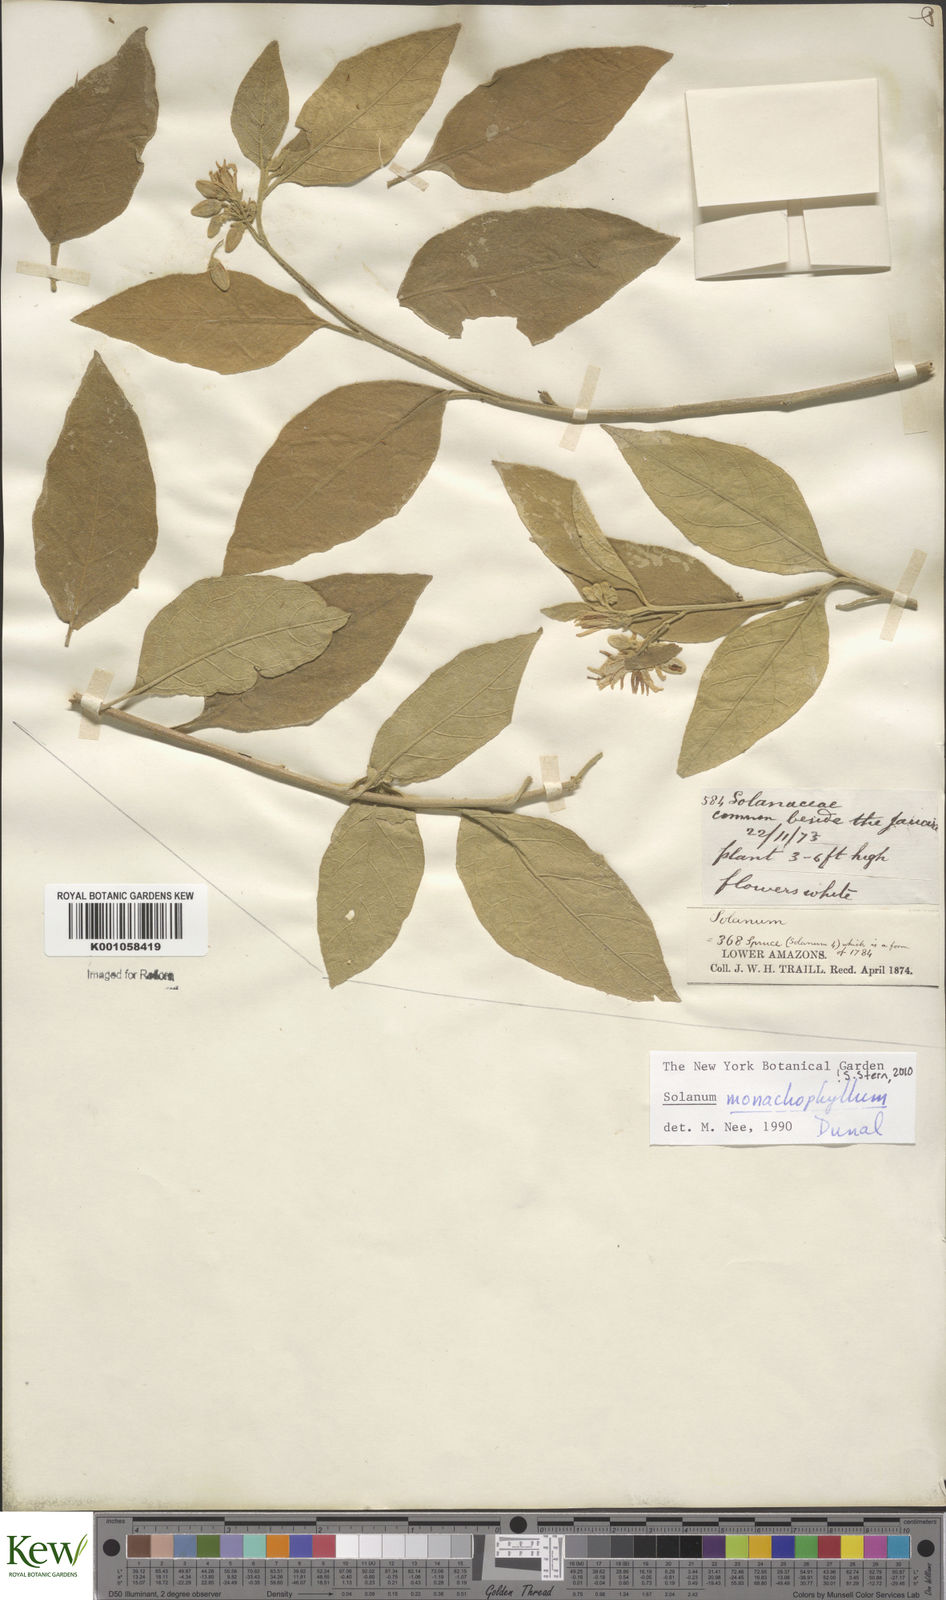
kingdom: Plantae
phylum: Tracheophyta
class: Magnoliopsida
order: Solanales
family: Solanaceae
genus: Solanum
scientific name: Solanum monachophyllum
